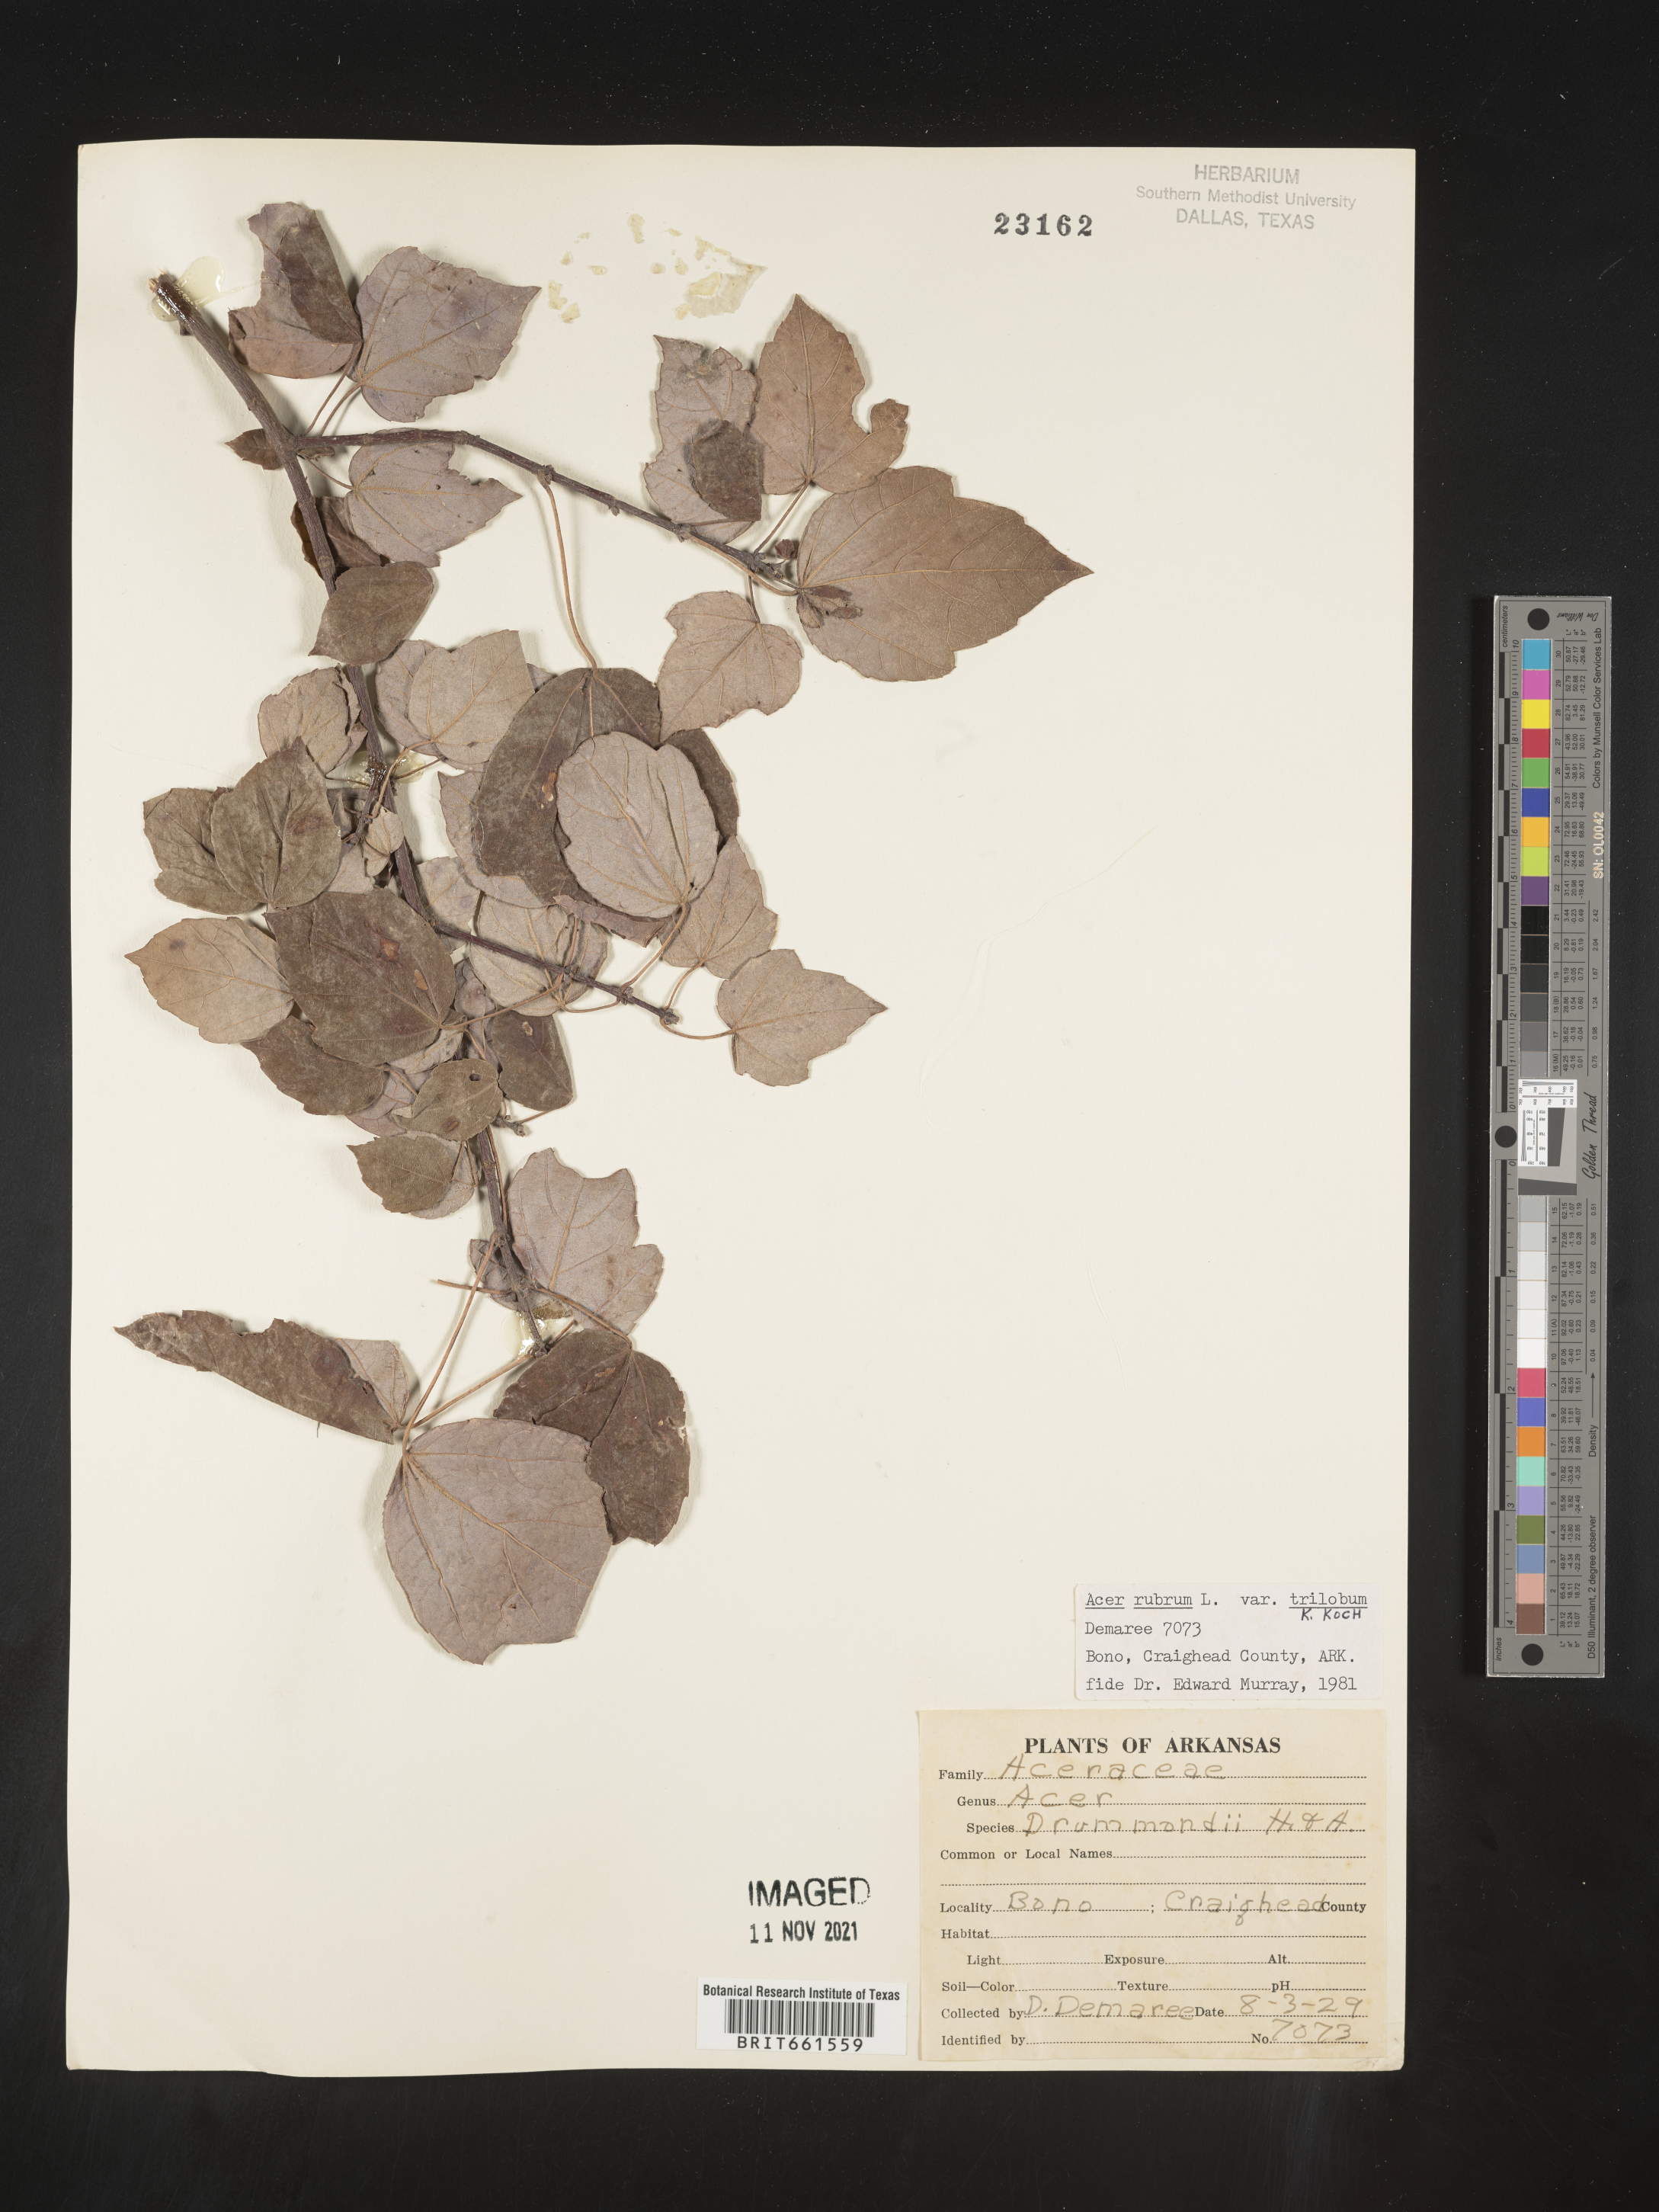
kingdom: Plantae
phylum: Tracheophyta
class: Magnoliopsida
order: Sapindales
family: Sapindaceae
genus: Acer
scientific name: Acer rubrum
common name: Red maple
